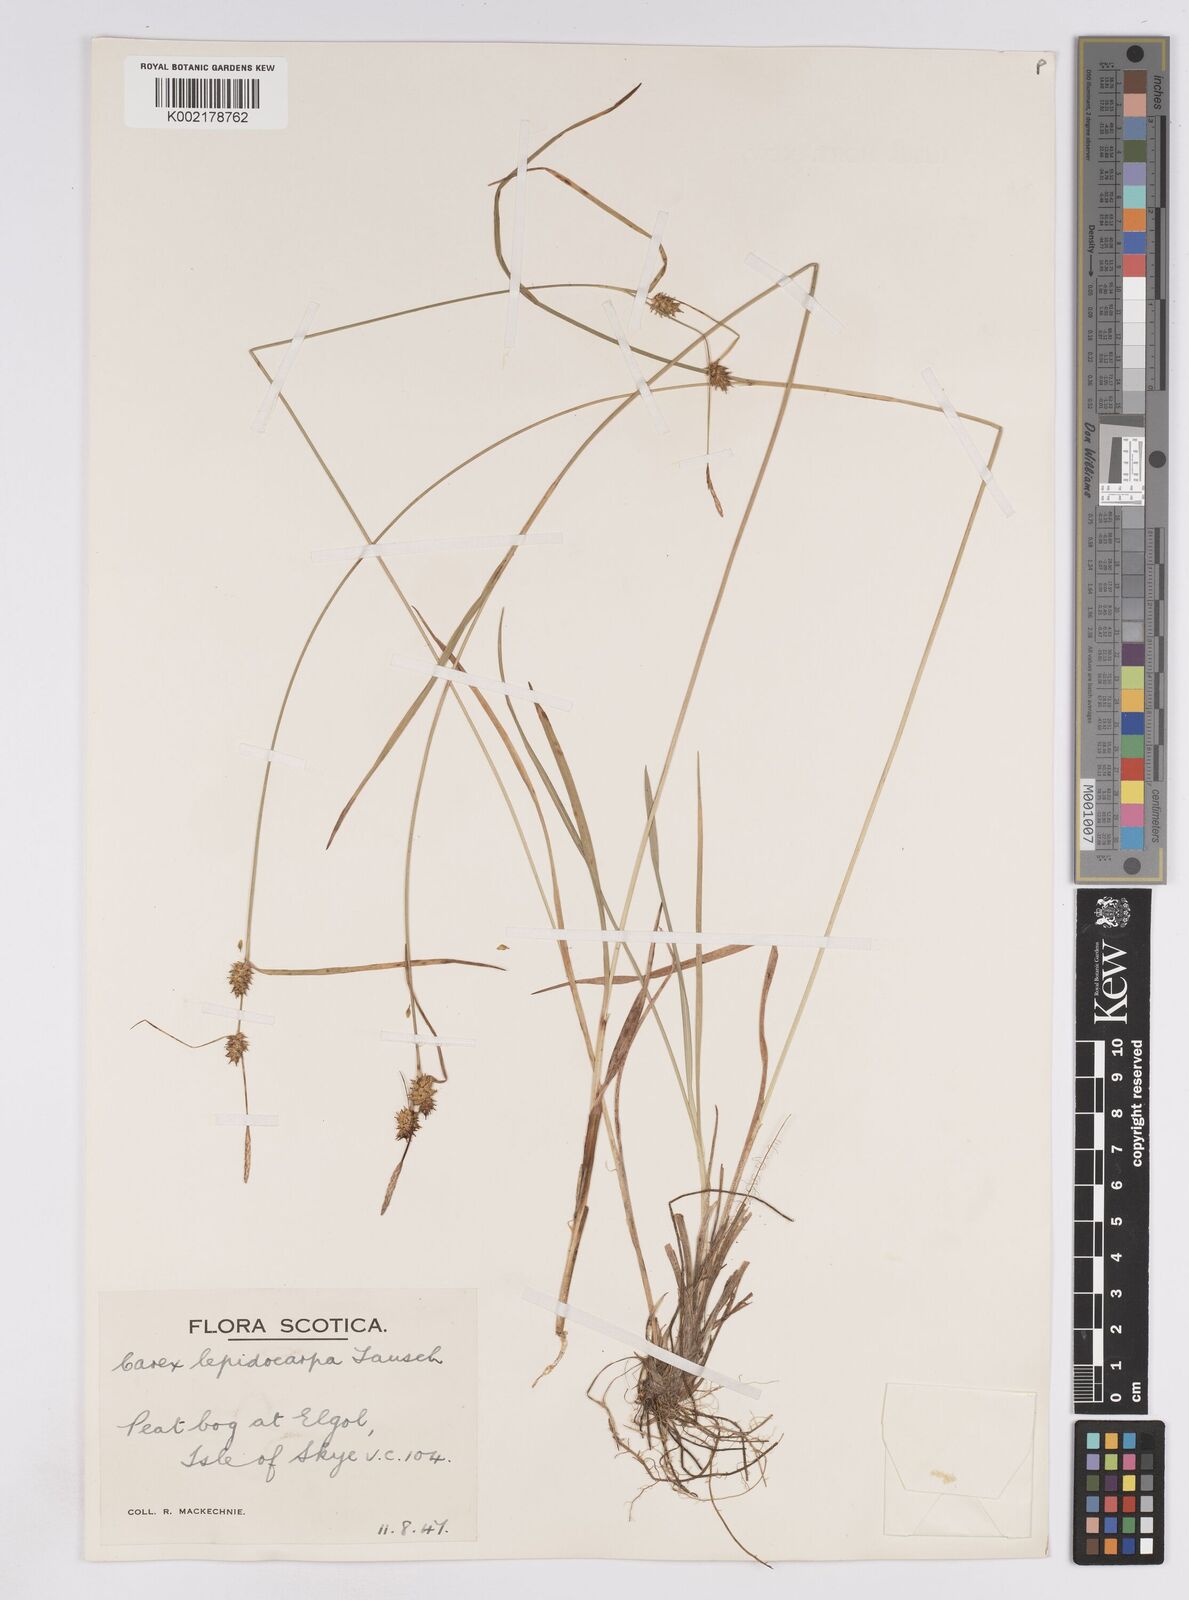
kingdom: Plantae
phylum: Tracheophyta
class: Liliopsida
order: Poales
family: Cyperaceae
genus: Carex
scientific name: Carex lepidocarpa
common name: Long-stalked yellow-sedge
